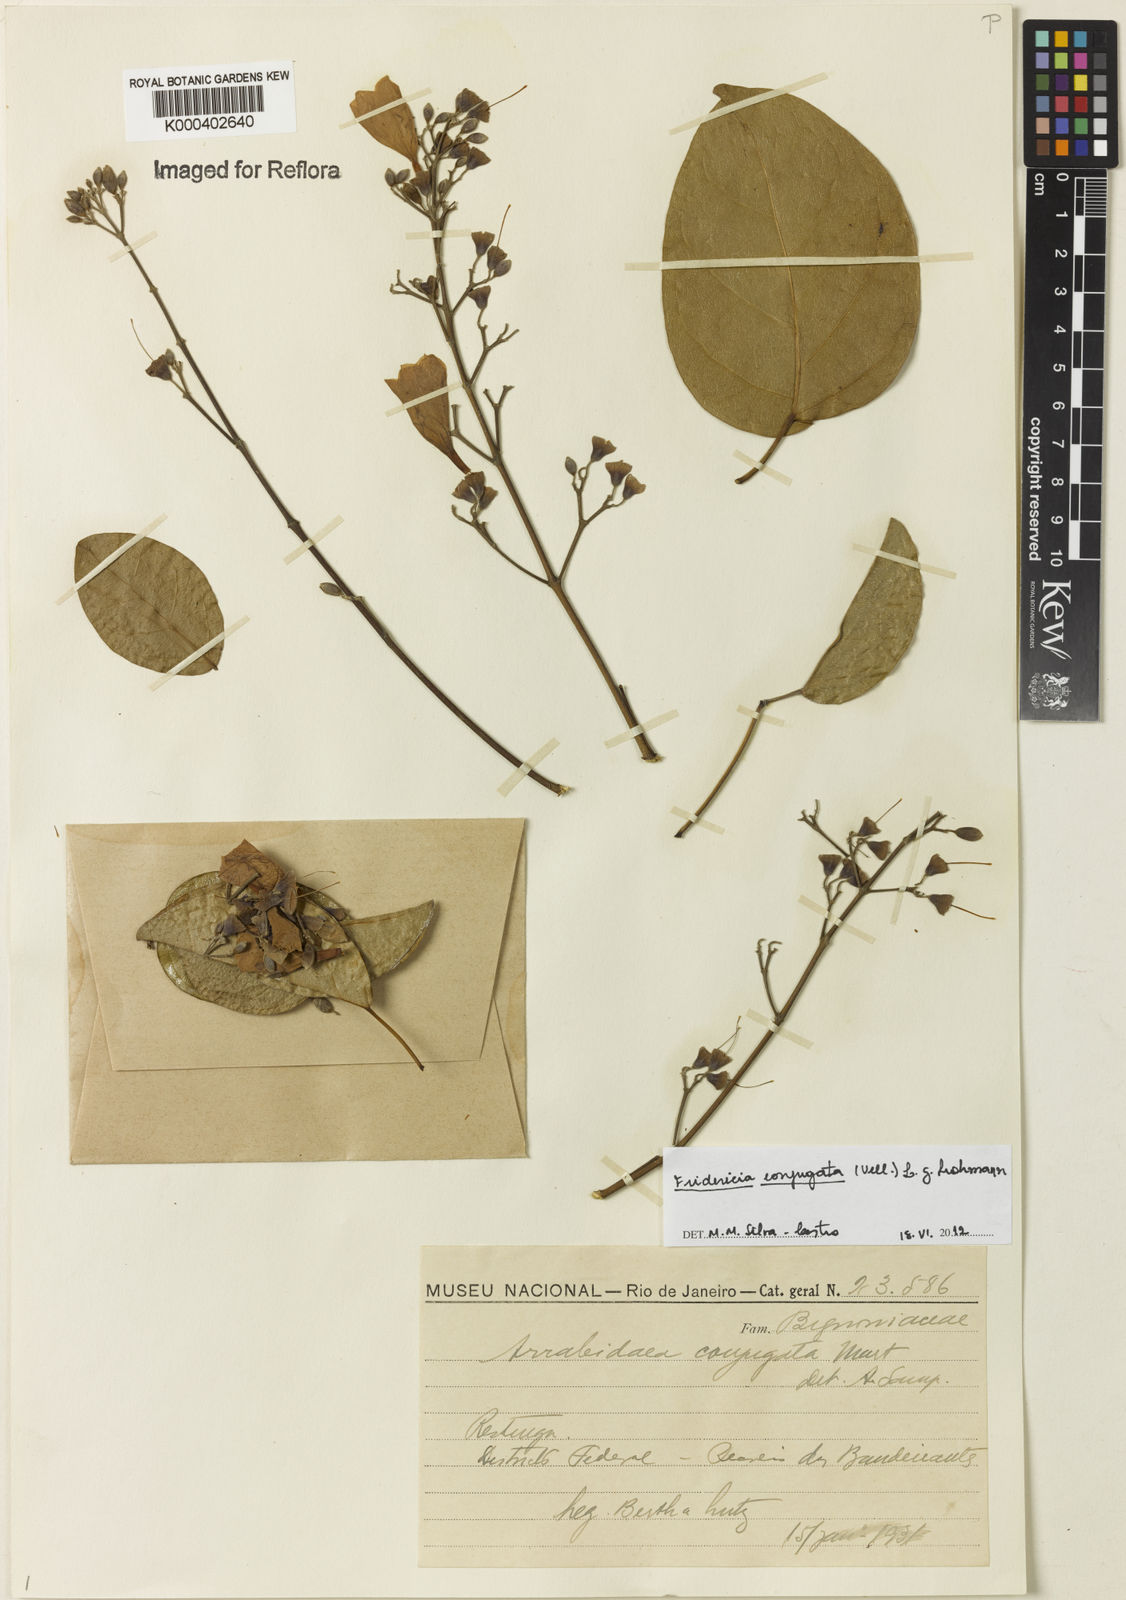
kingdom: Plantae
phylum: Tracheophyta
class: Magnoliopsida
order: Lamiales
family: Bignoniaceae
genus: Fridericia
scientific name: Fridericia conjugata
